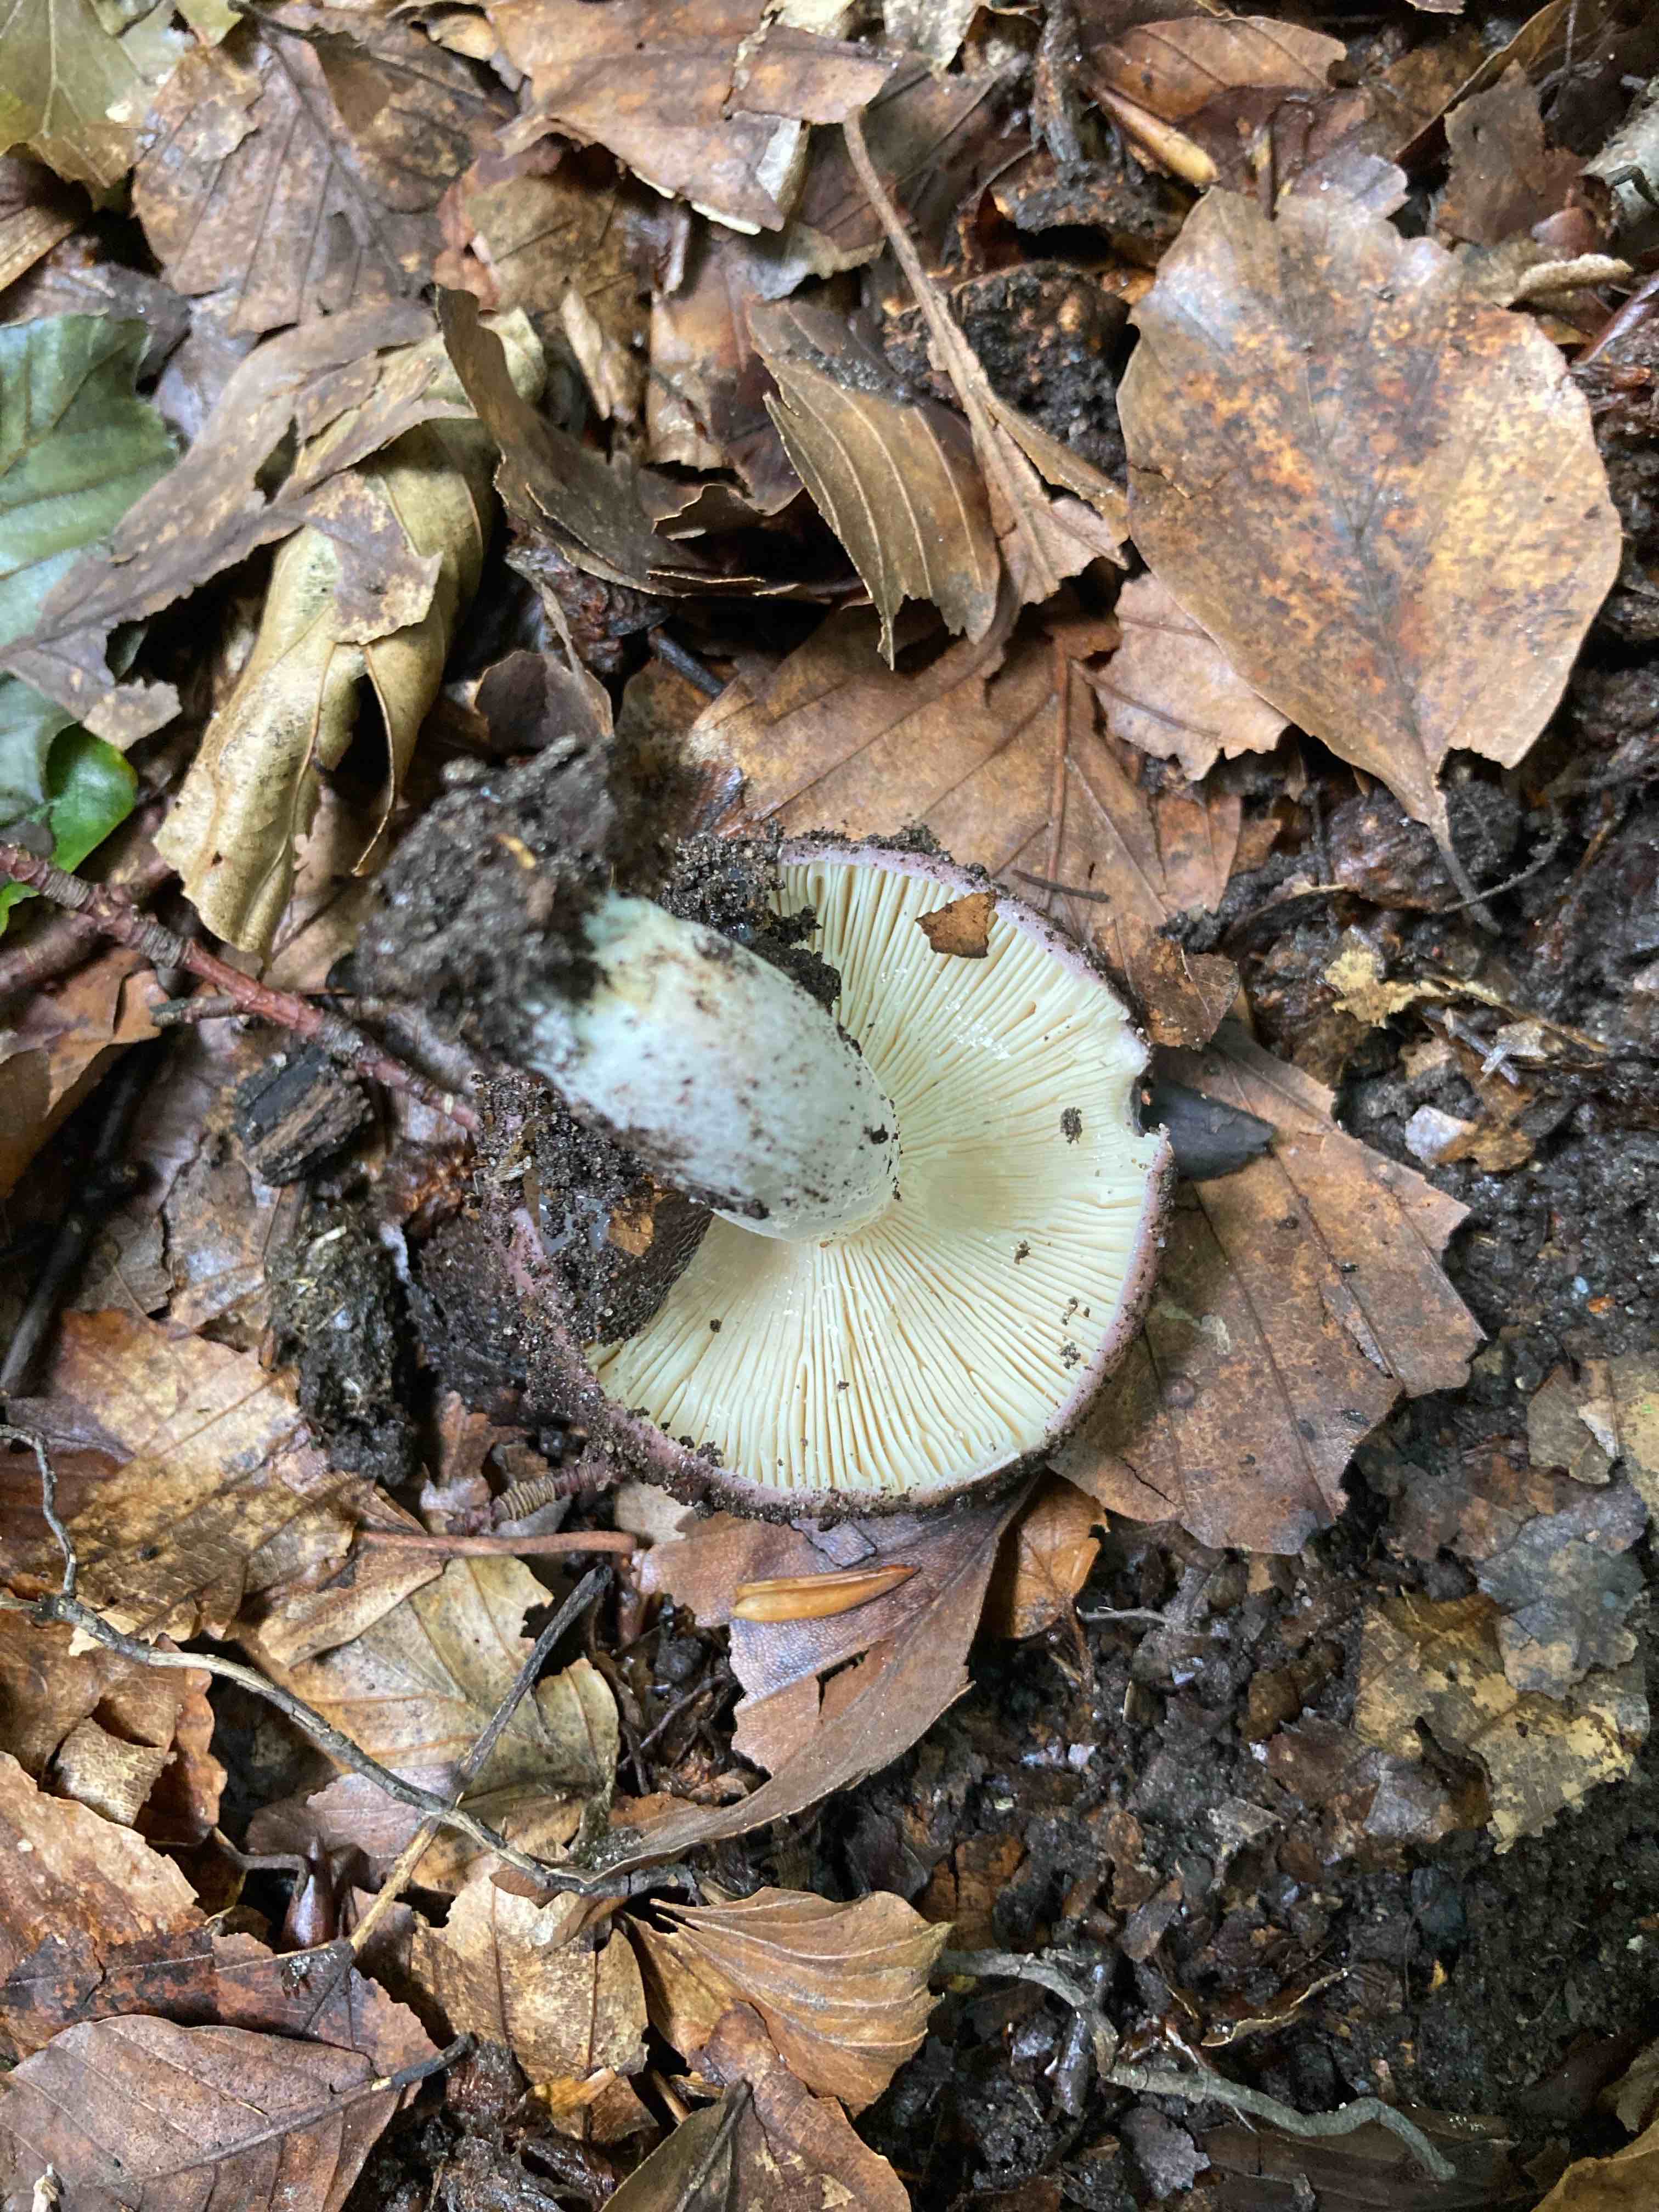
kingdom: Fungi
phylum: Basidiomycota
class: Agaricomycetes
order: Russulales
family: Russulaceae
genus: Russula
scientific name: Russula
